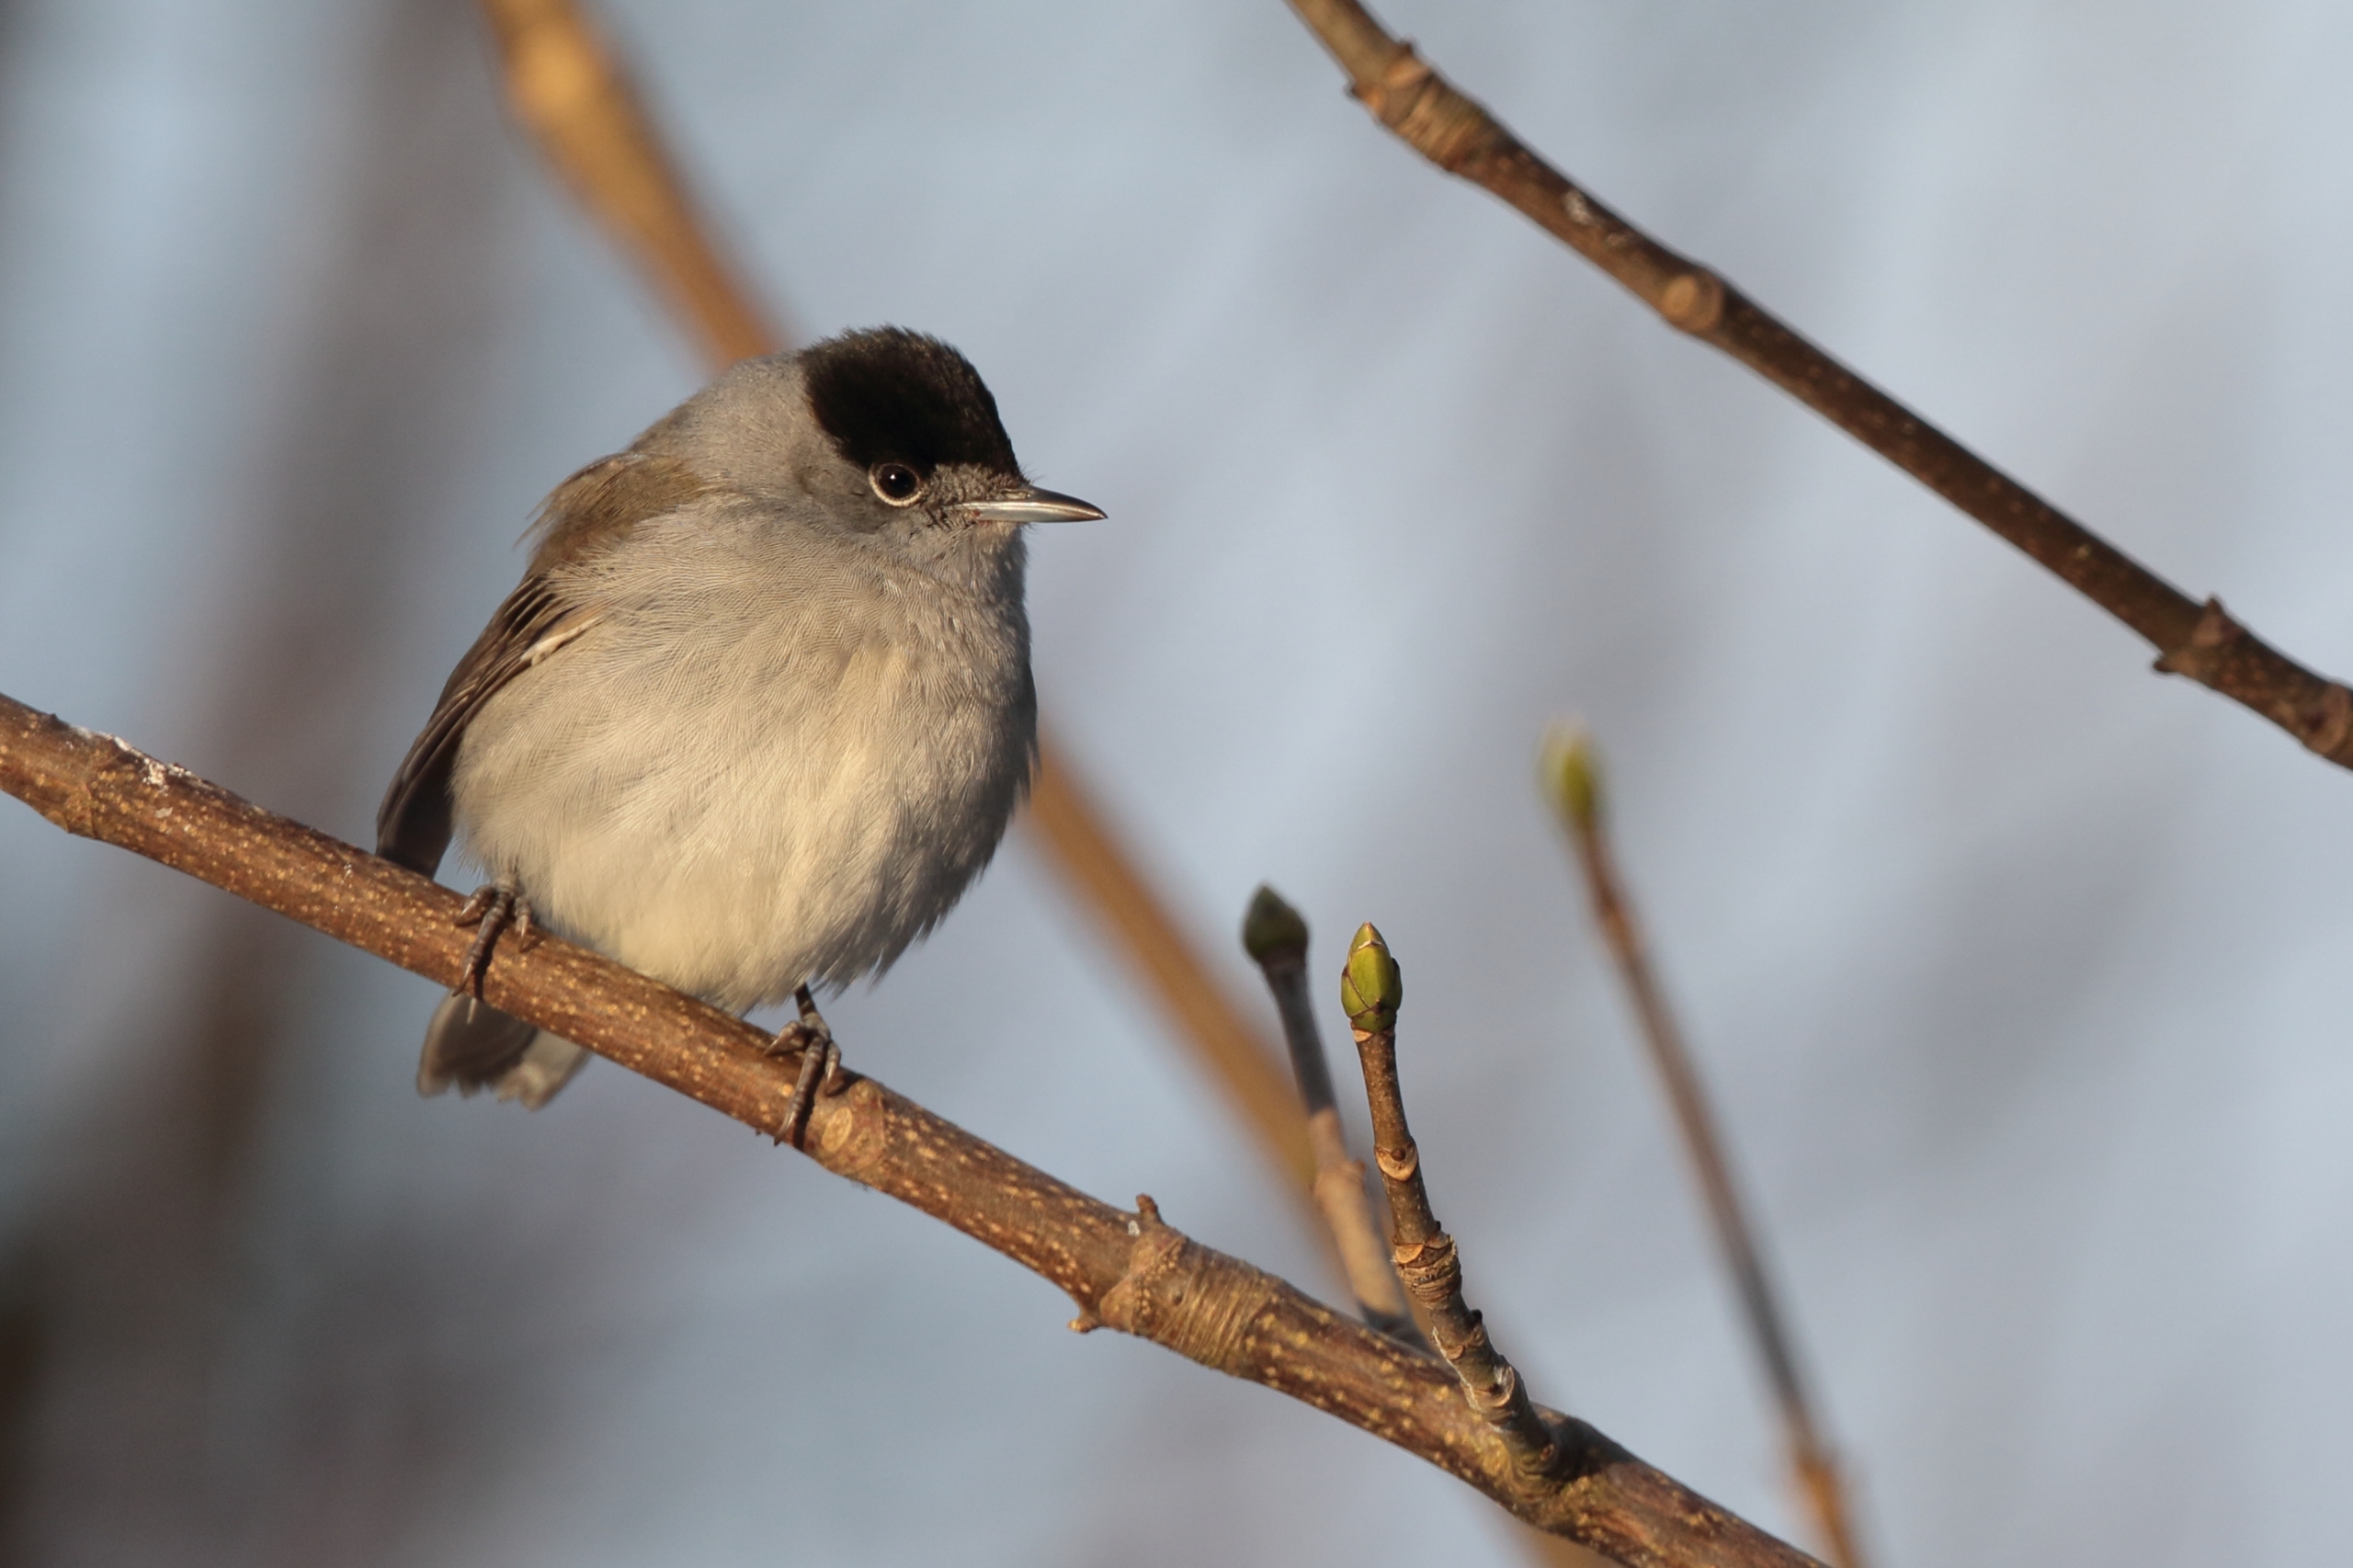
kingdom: Animalia
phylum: Chordata
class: Aves
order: Passeriformes
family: Sylviidae
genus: Sylvia
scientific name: Sylvia atricapilla
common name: Munk
